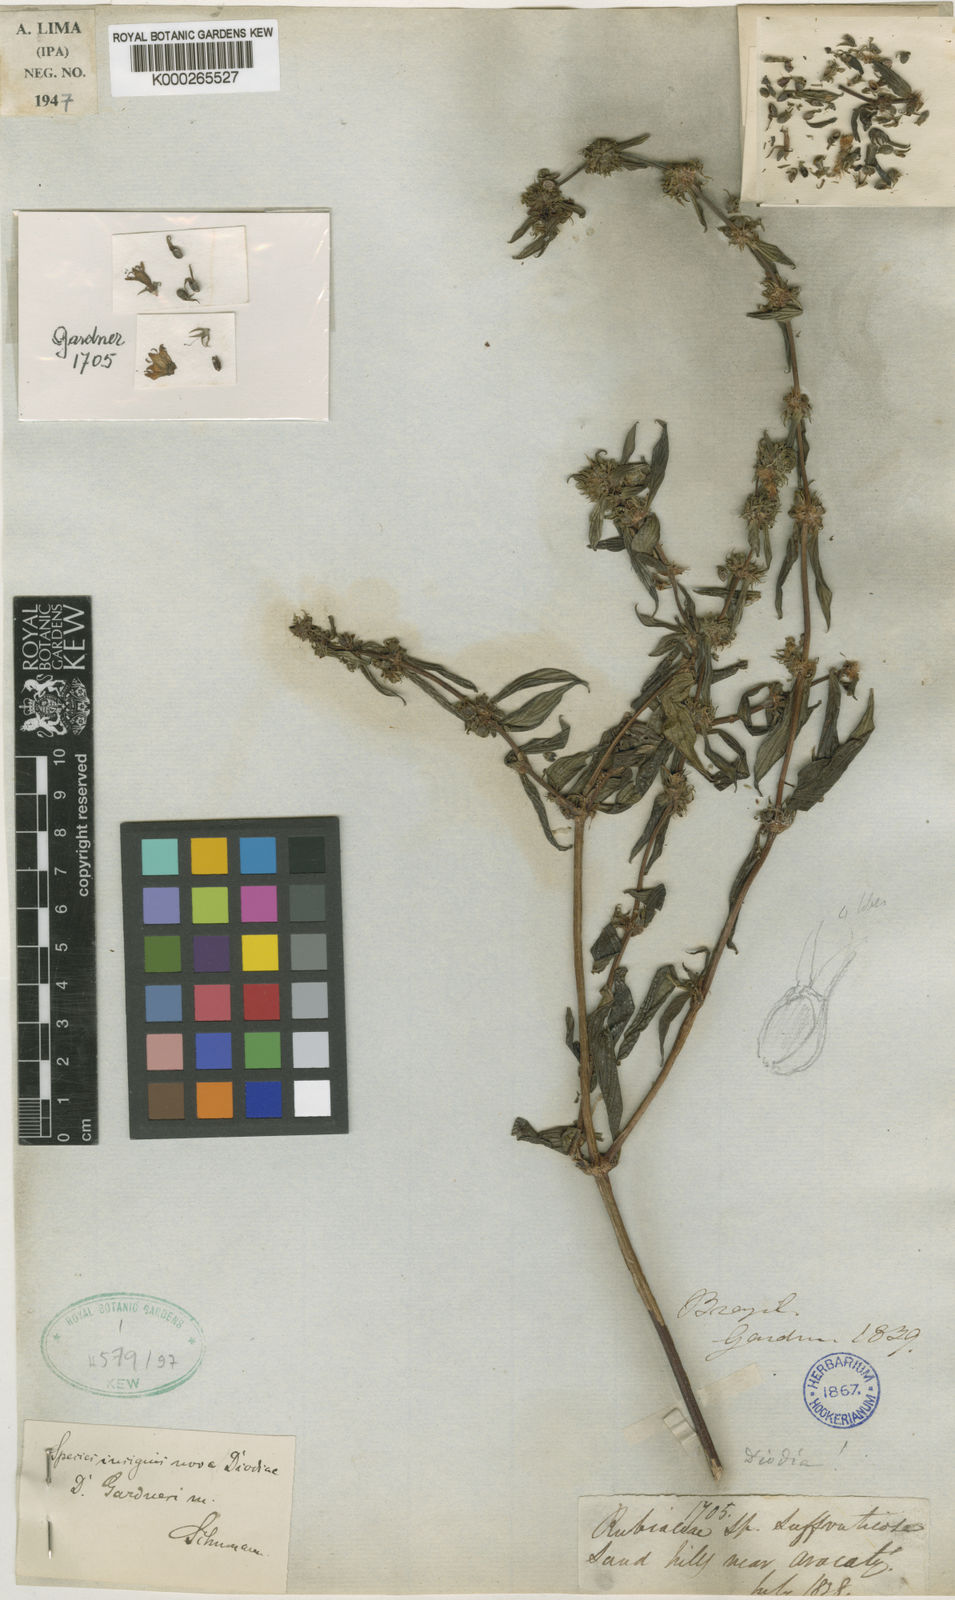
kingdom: Plantae
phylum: Tracheophyta
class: Magnoliopsida
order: Gentianales
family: Rubiaceae
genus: Hexasepalum
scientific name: Hexasepalum gardneri
